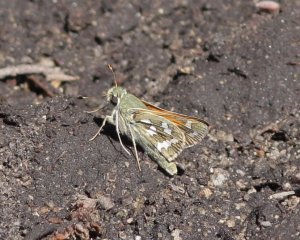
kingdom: Animalia
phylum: Arthropoda
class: Insecta
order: Lepidoptera
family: Hesperiidae
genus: Hesperia
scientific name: Hesperia juba
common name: Juba Skipper
